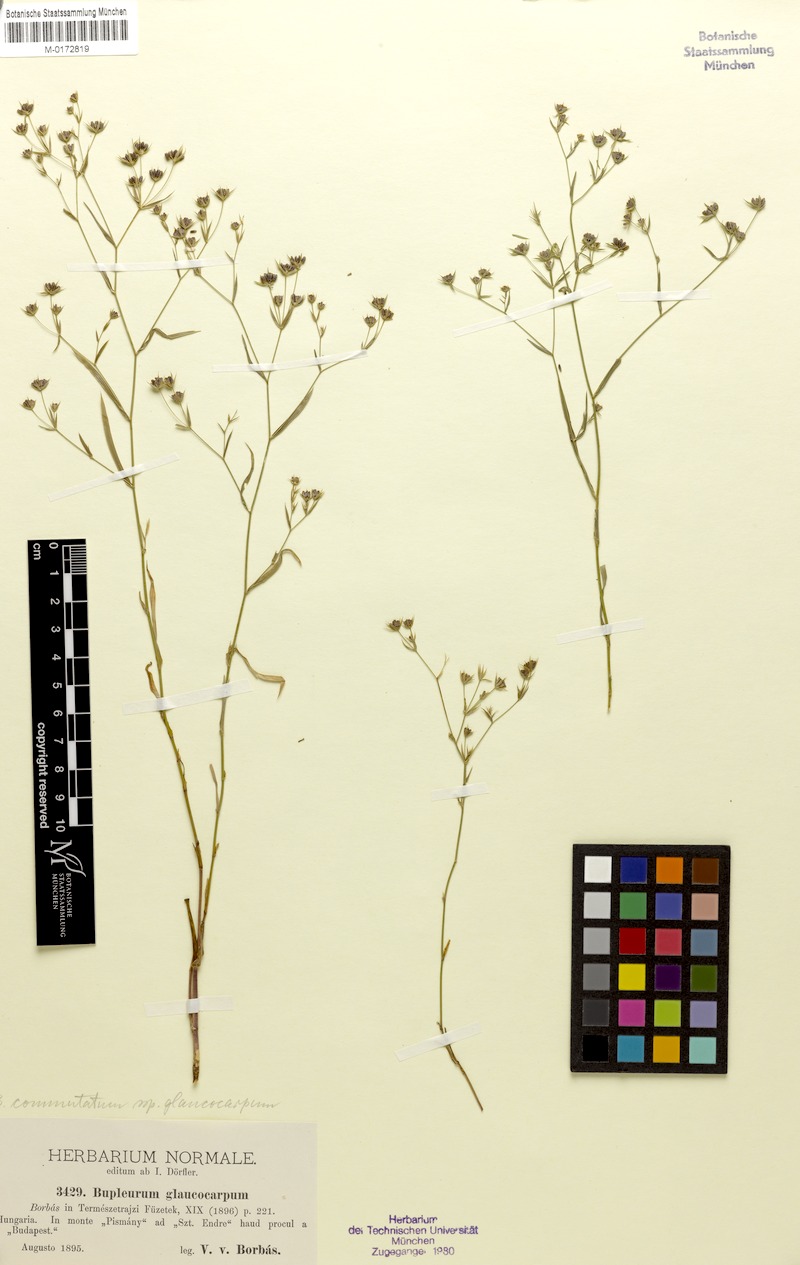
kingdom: Plantae
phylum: Tracheophyta
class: Magnoliopsida
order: Apiales
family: Apiaceae
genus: Bupleurum
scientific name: Bupleurum pachnospermum
